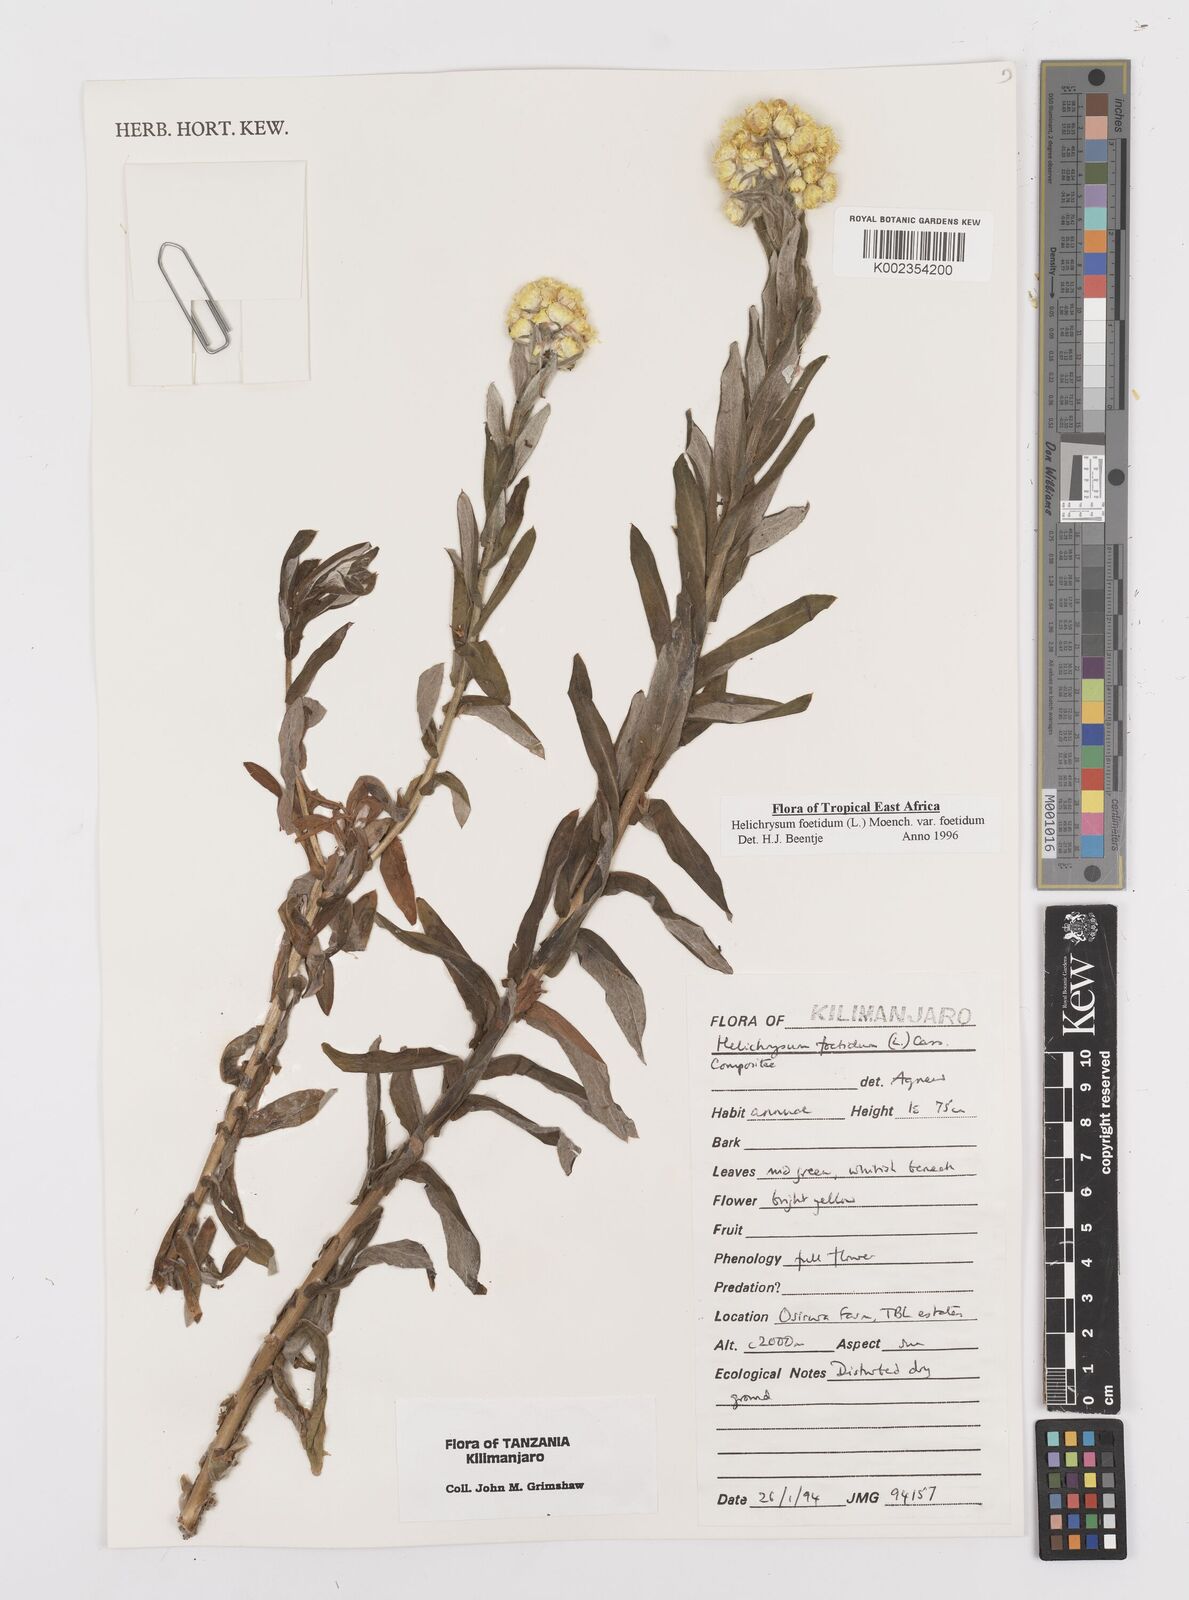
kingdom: Plantae
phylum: Tracheophyta
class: Magnoliopsida
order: Asterales
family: Asteraceae
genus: Helichrysum
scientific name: Helichrysum foetidum
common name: Stinking everlasting
